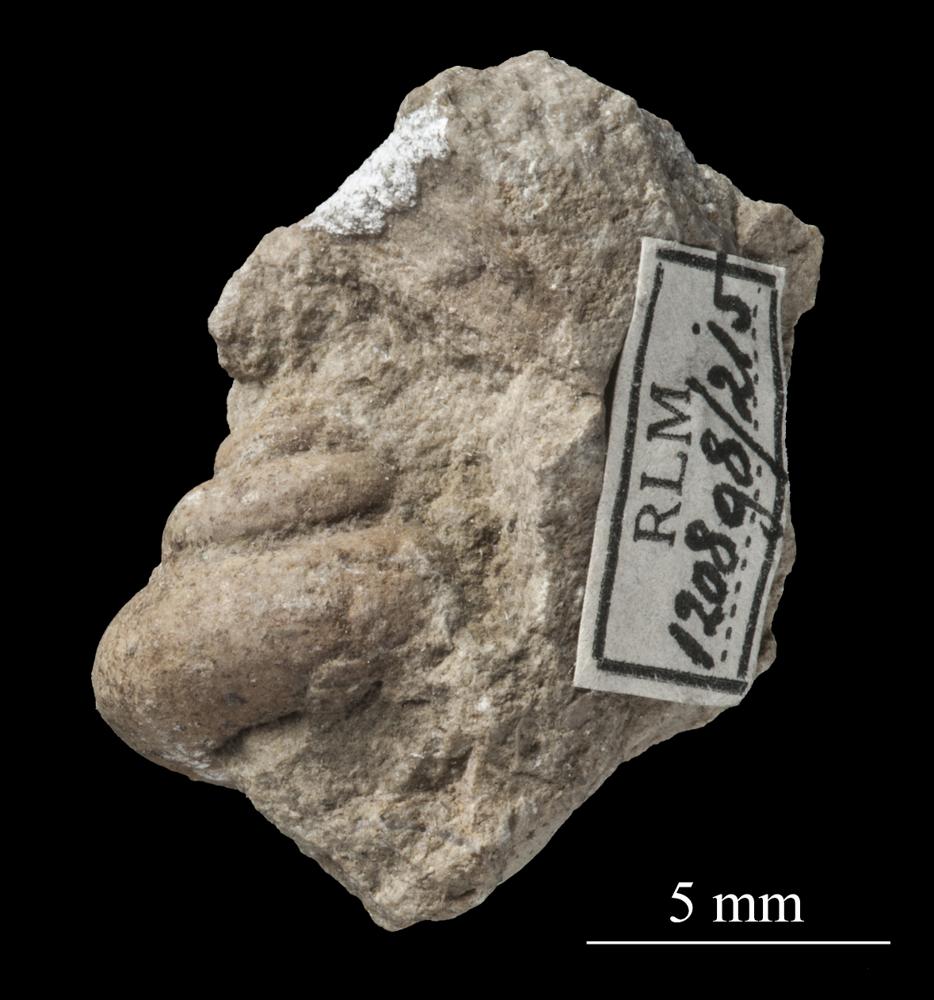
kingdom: Animalia
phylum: Mollusca
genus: Gonionema
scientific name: Gonionema
